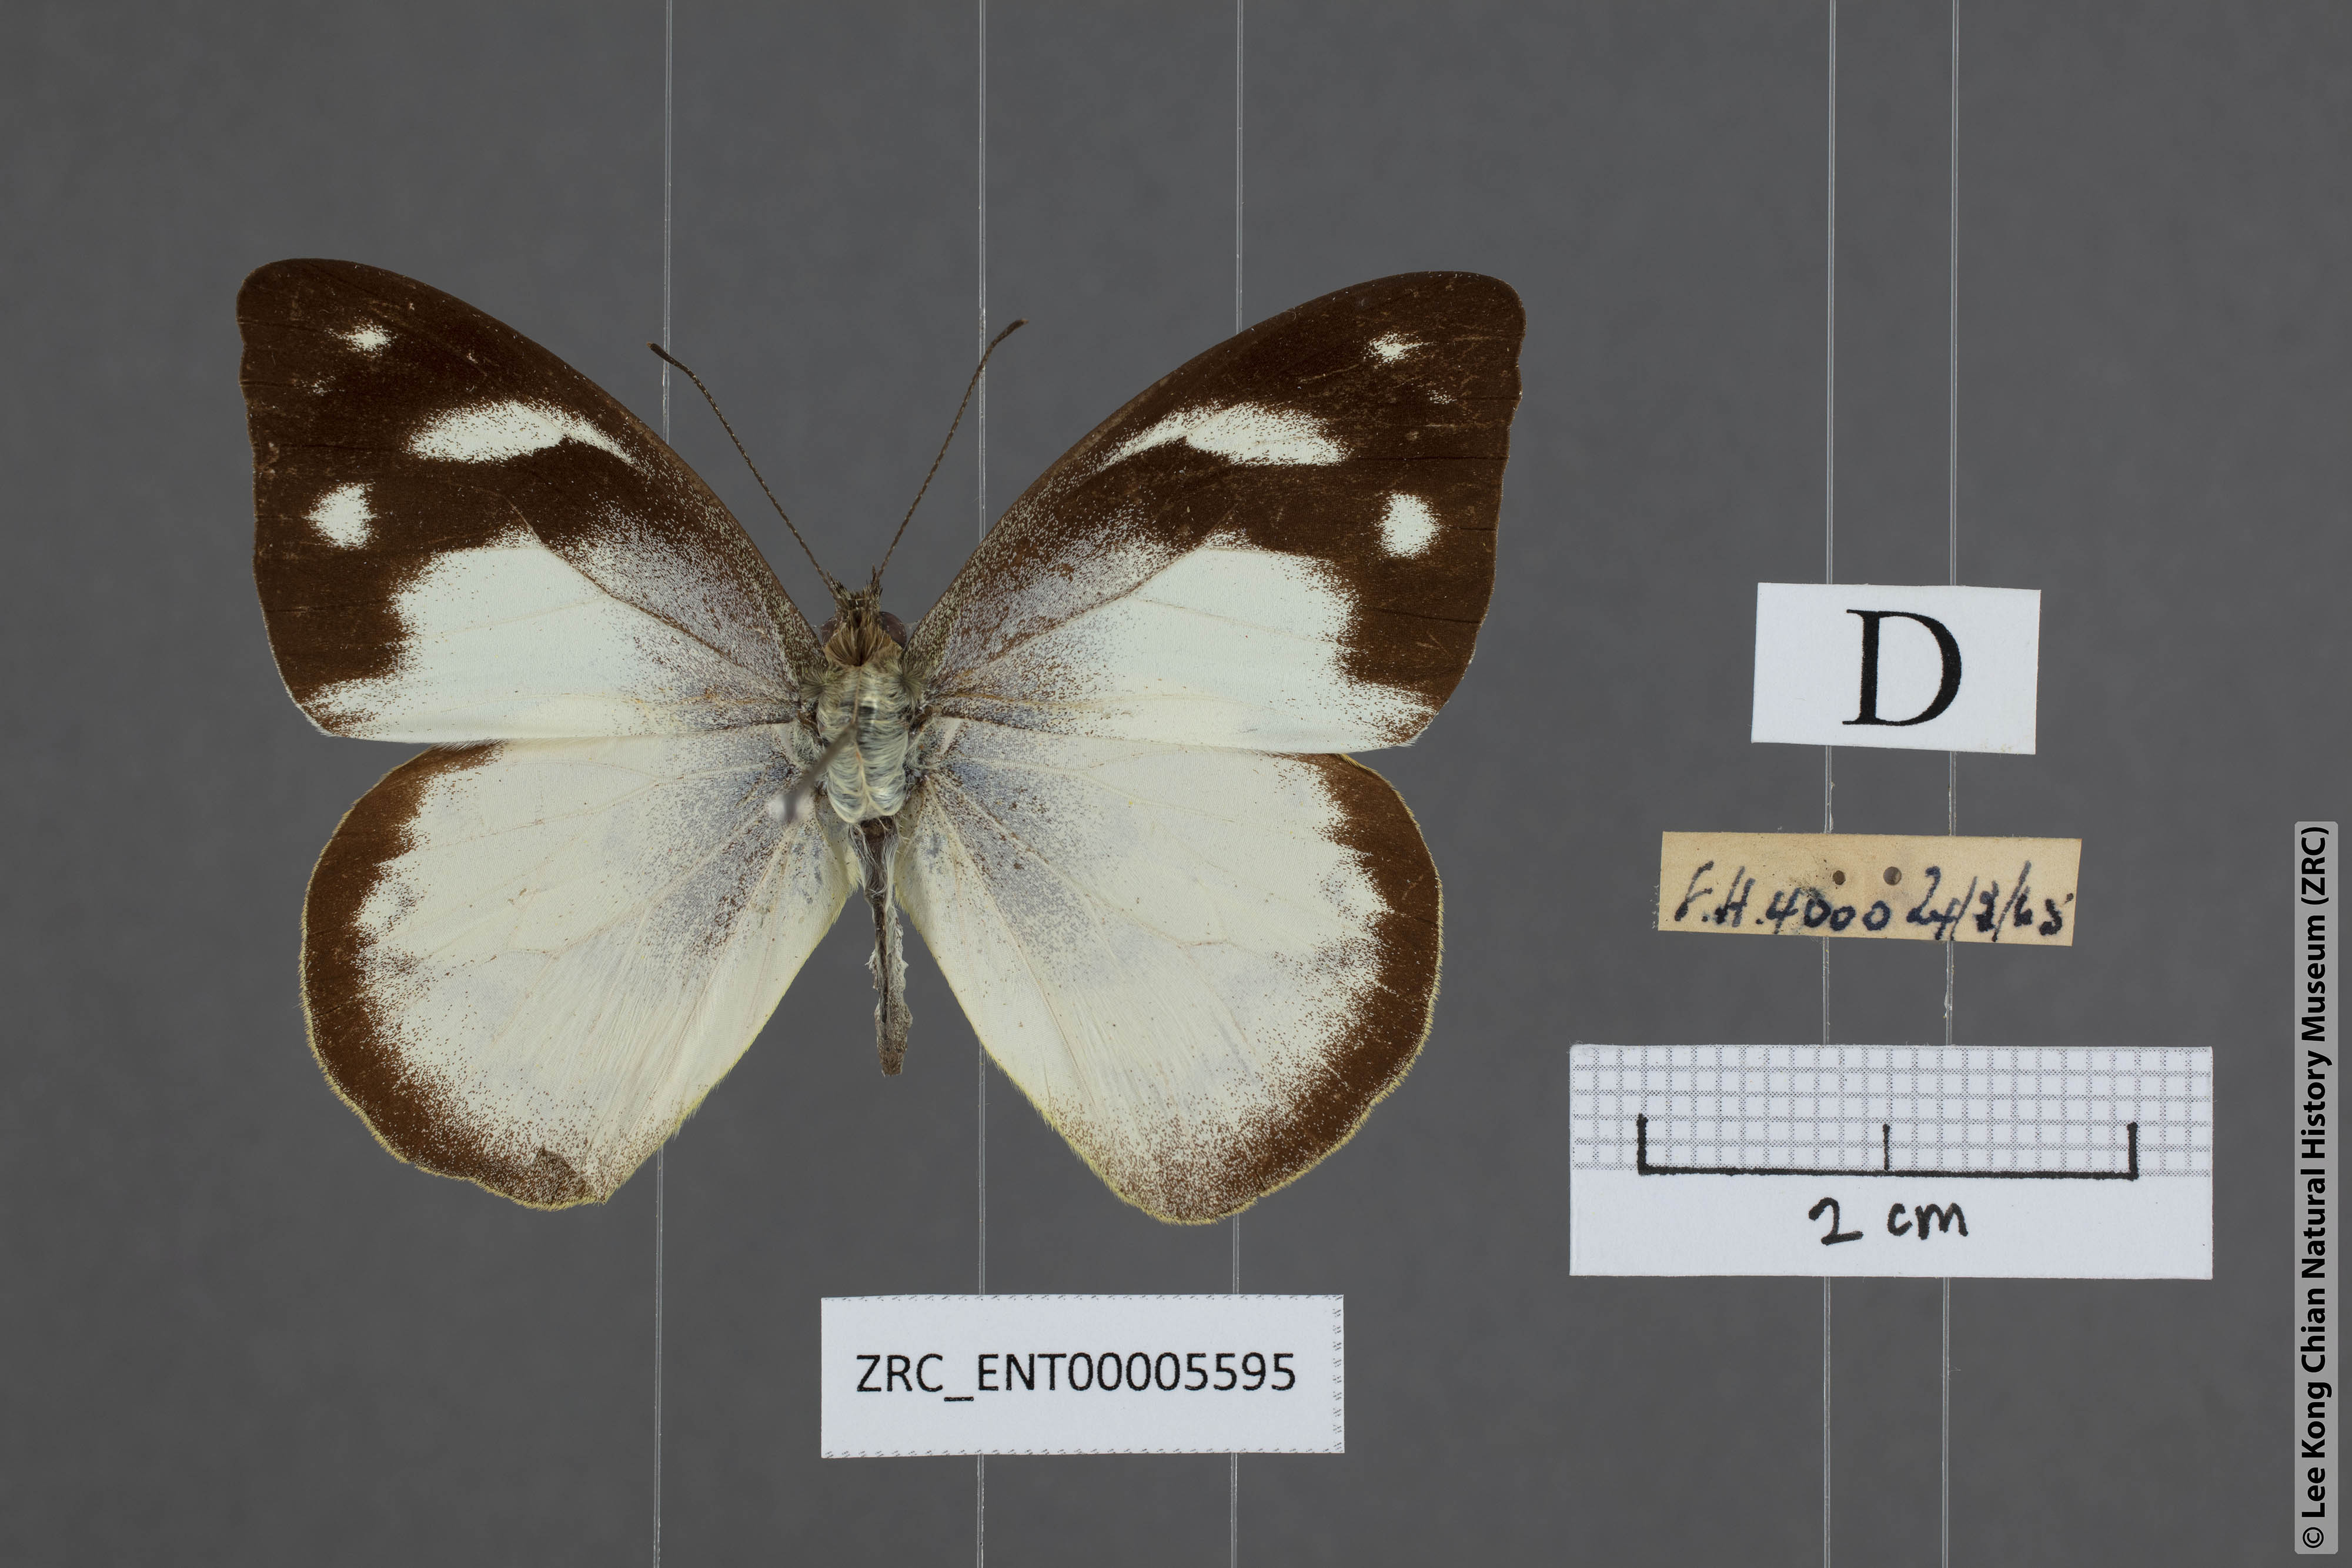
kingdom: Animalia
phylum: Arthropoda
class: Insecta
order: Lepidoptera
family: Pieridae
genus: Appias
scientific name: Appias pandione
